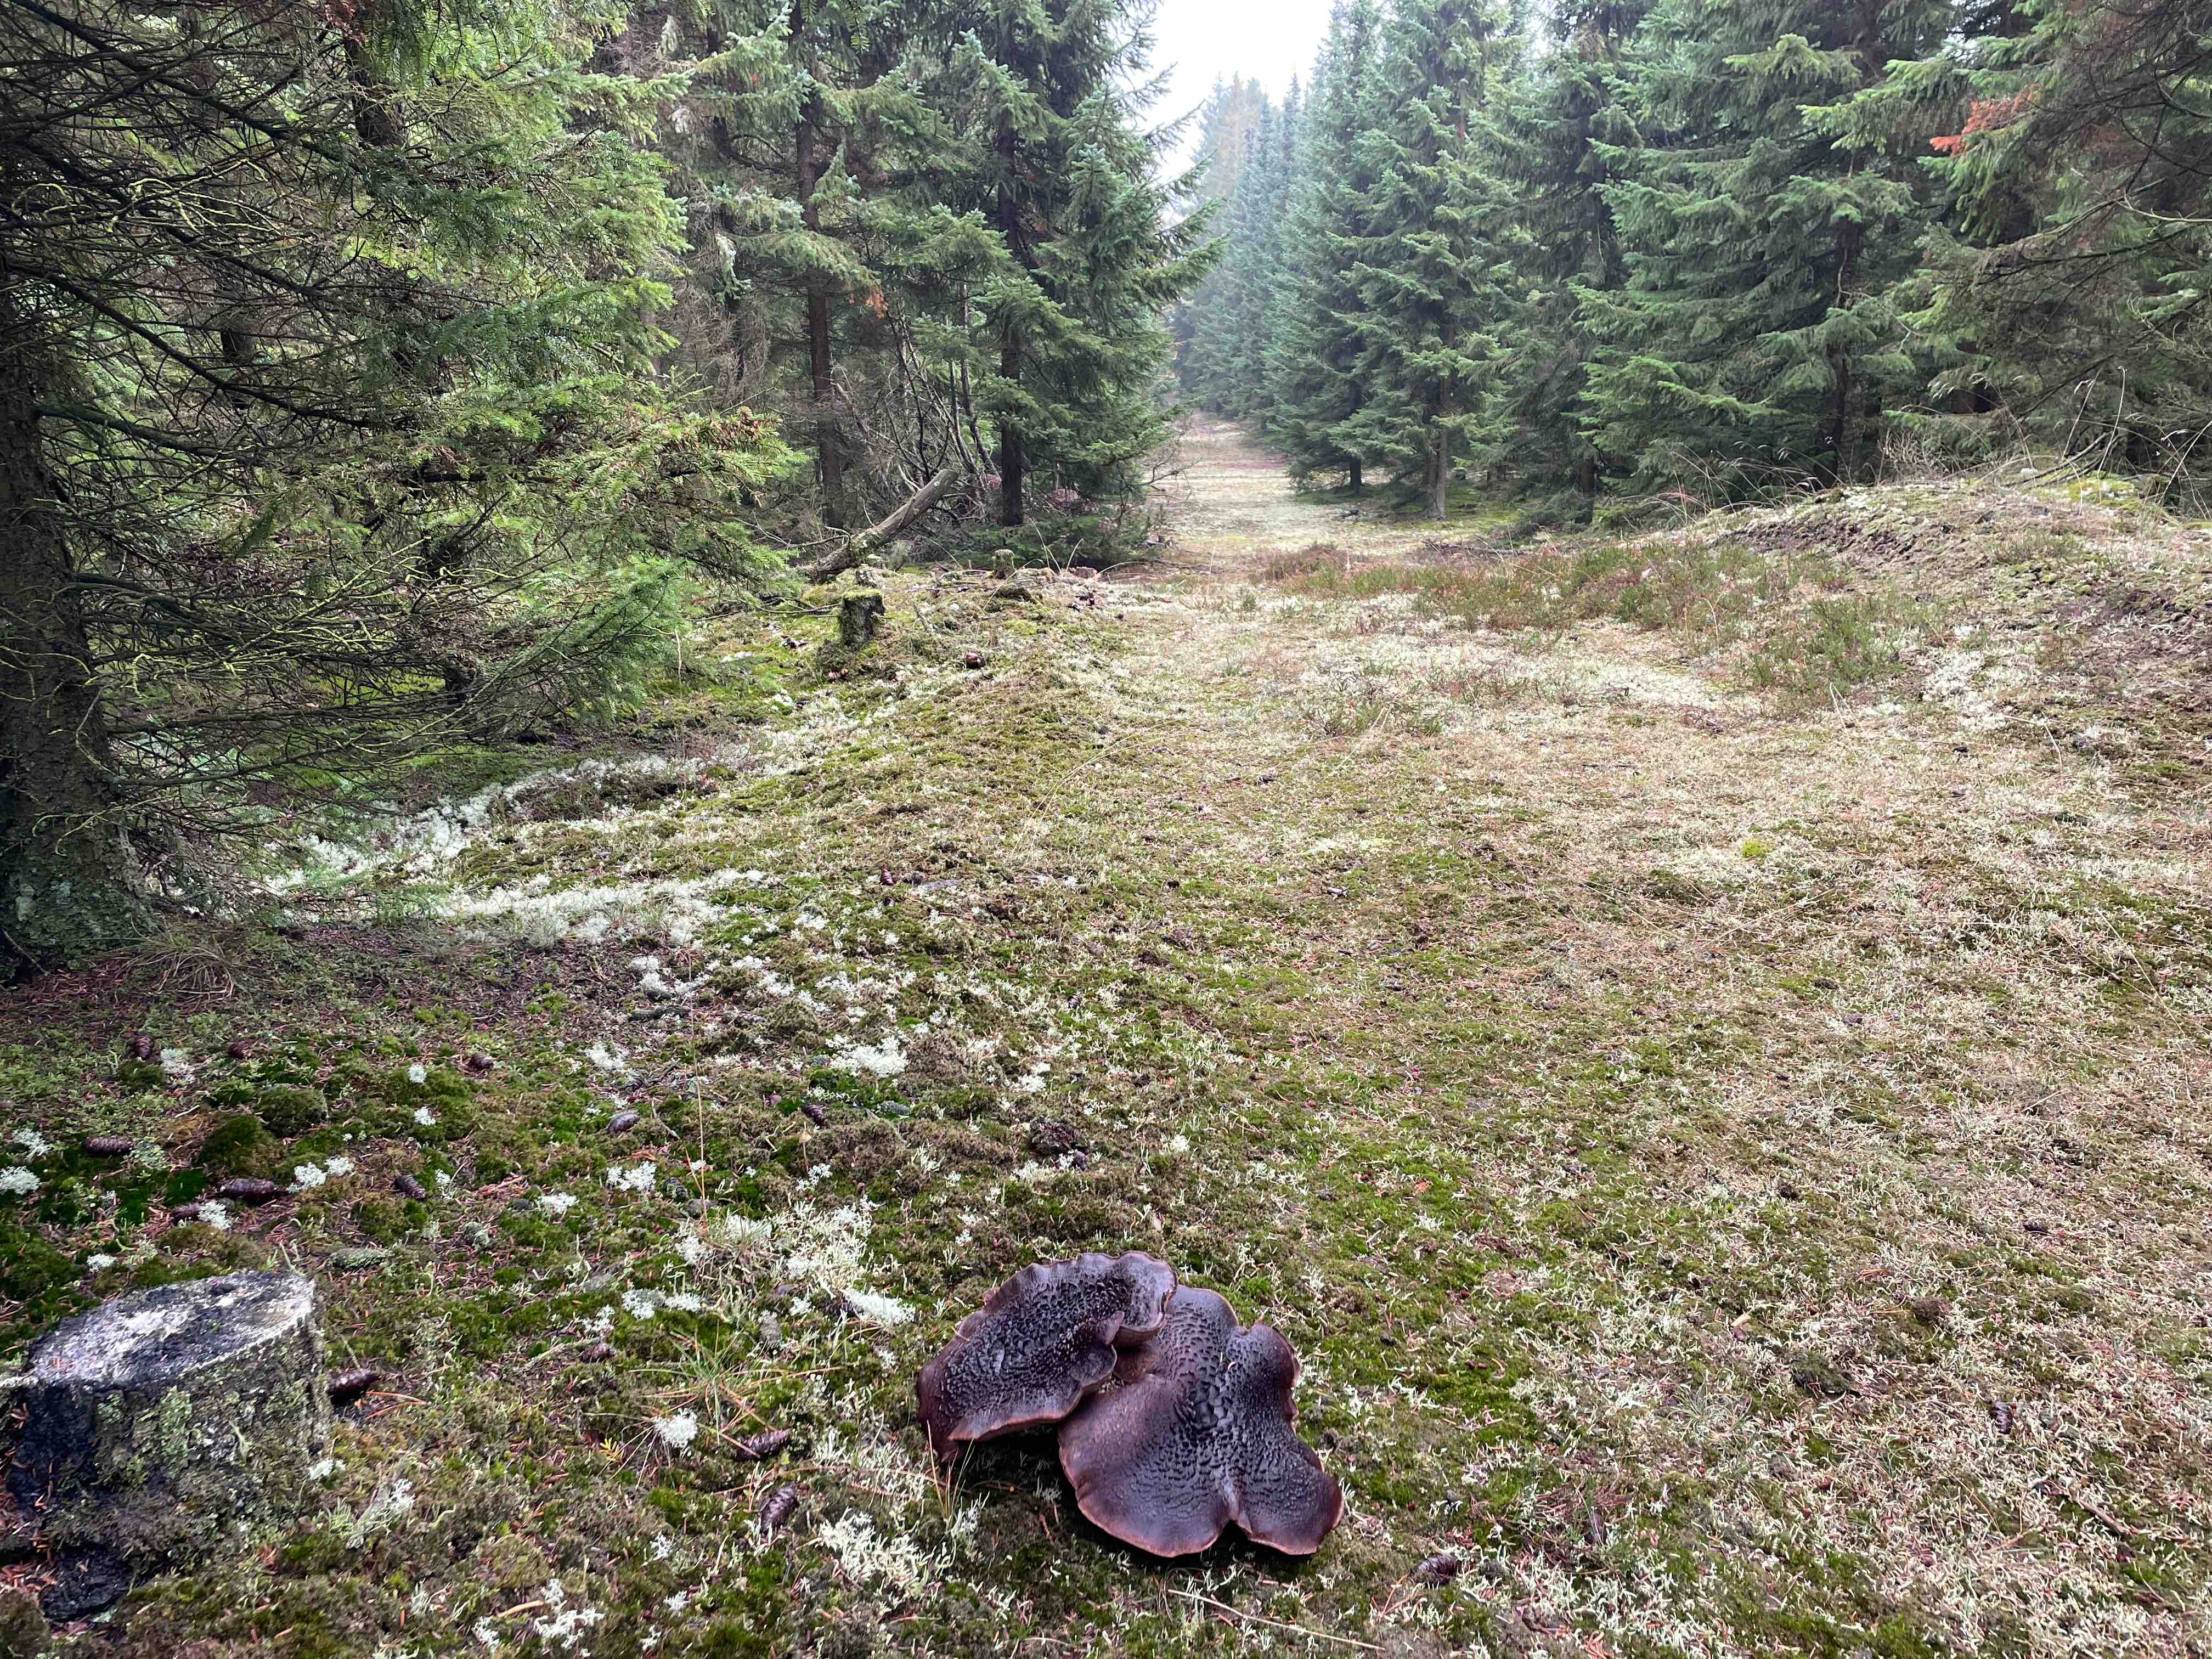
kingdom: Fungi
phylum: Basidiomycota
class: Agaricomycetes
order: Thelephorales
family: Bankeraceae
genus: Sarcodon
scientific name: Sarcodon squamosus
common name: småskællet kødpigsvamp
